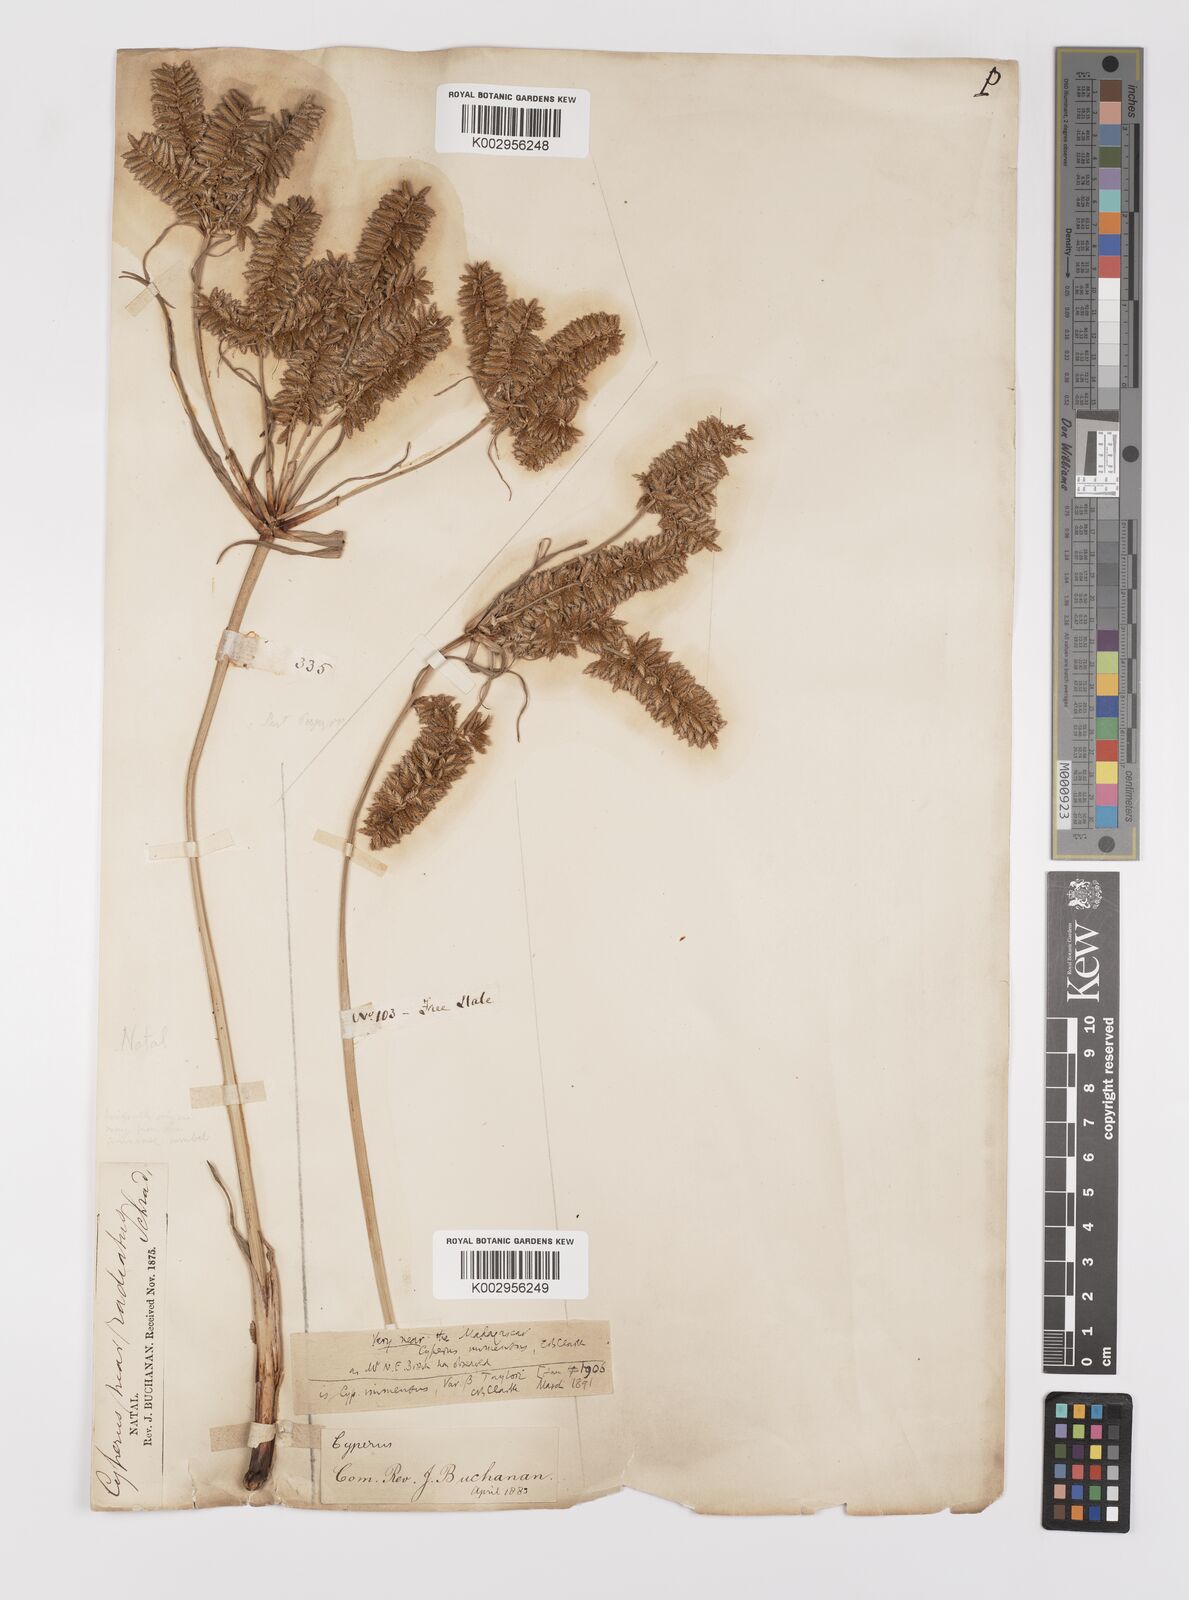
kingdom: Plantae
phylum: Tracheophyta
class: Liliopsida
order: Poales
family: Cyperaceae
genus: Cyperus
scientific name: Cyperus dives
